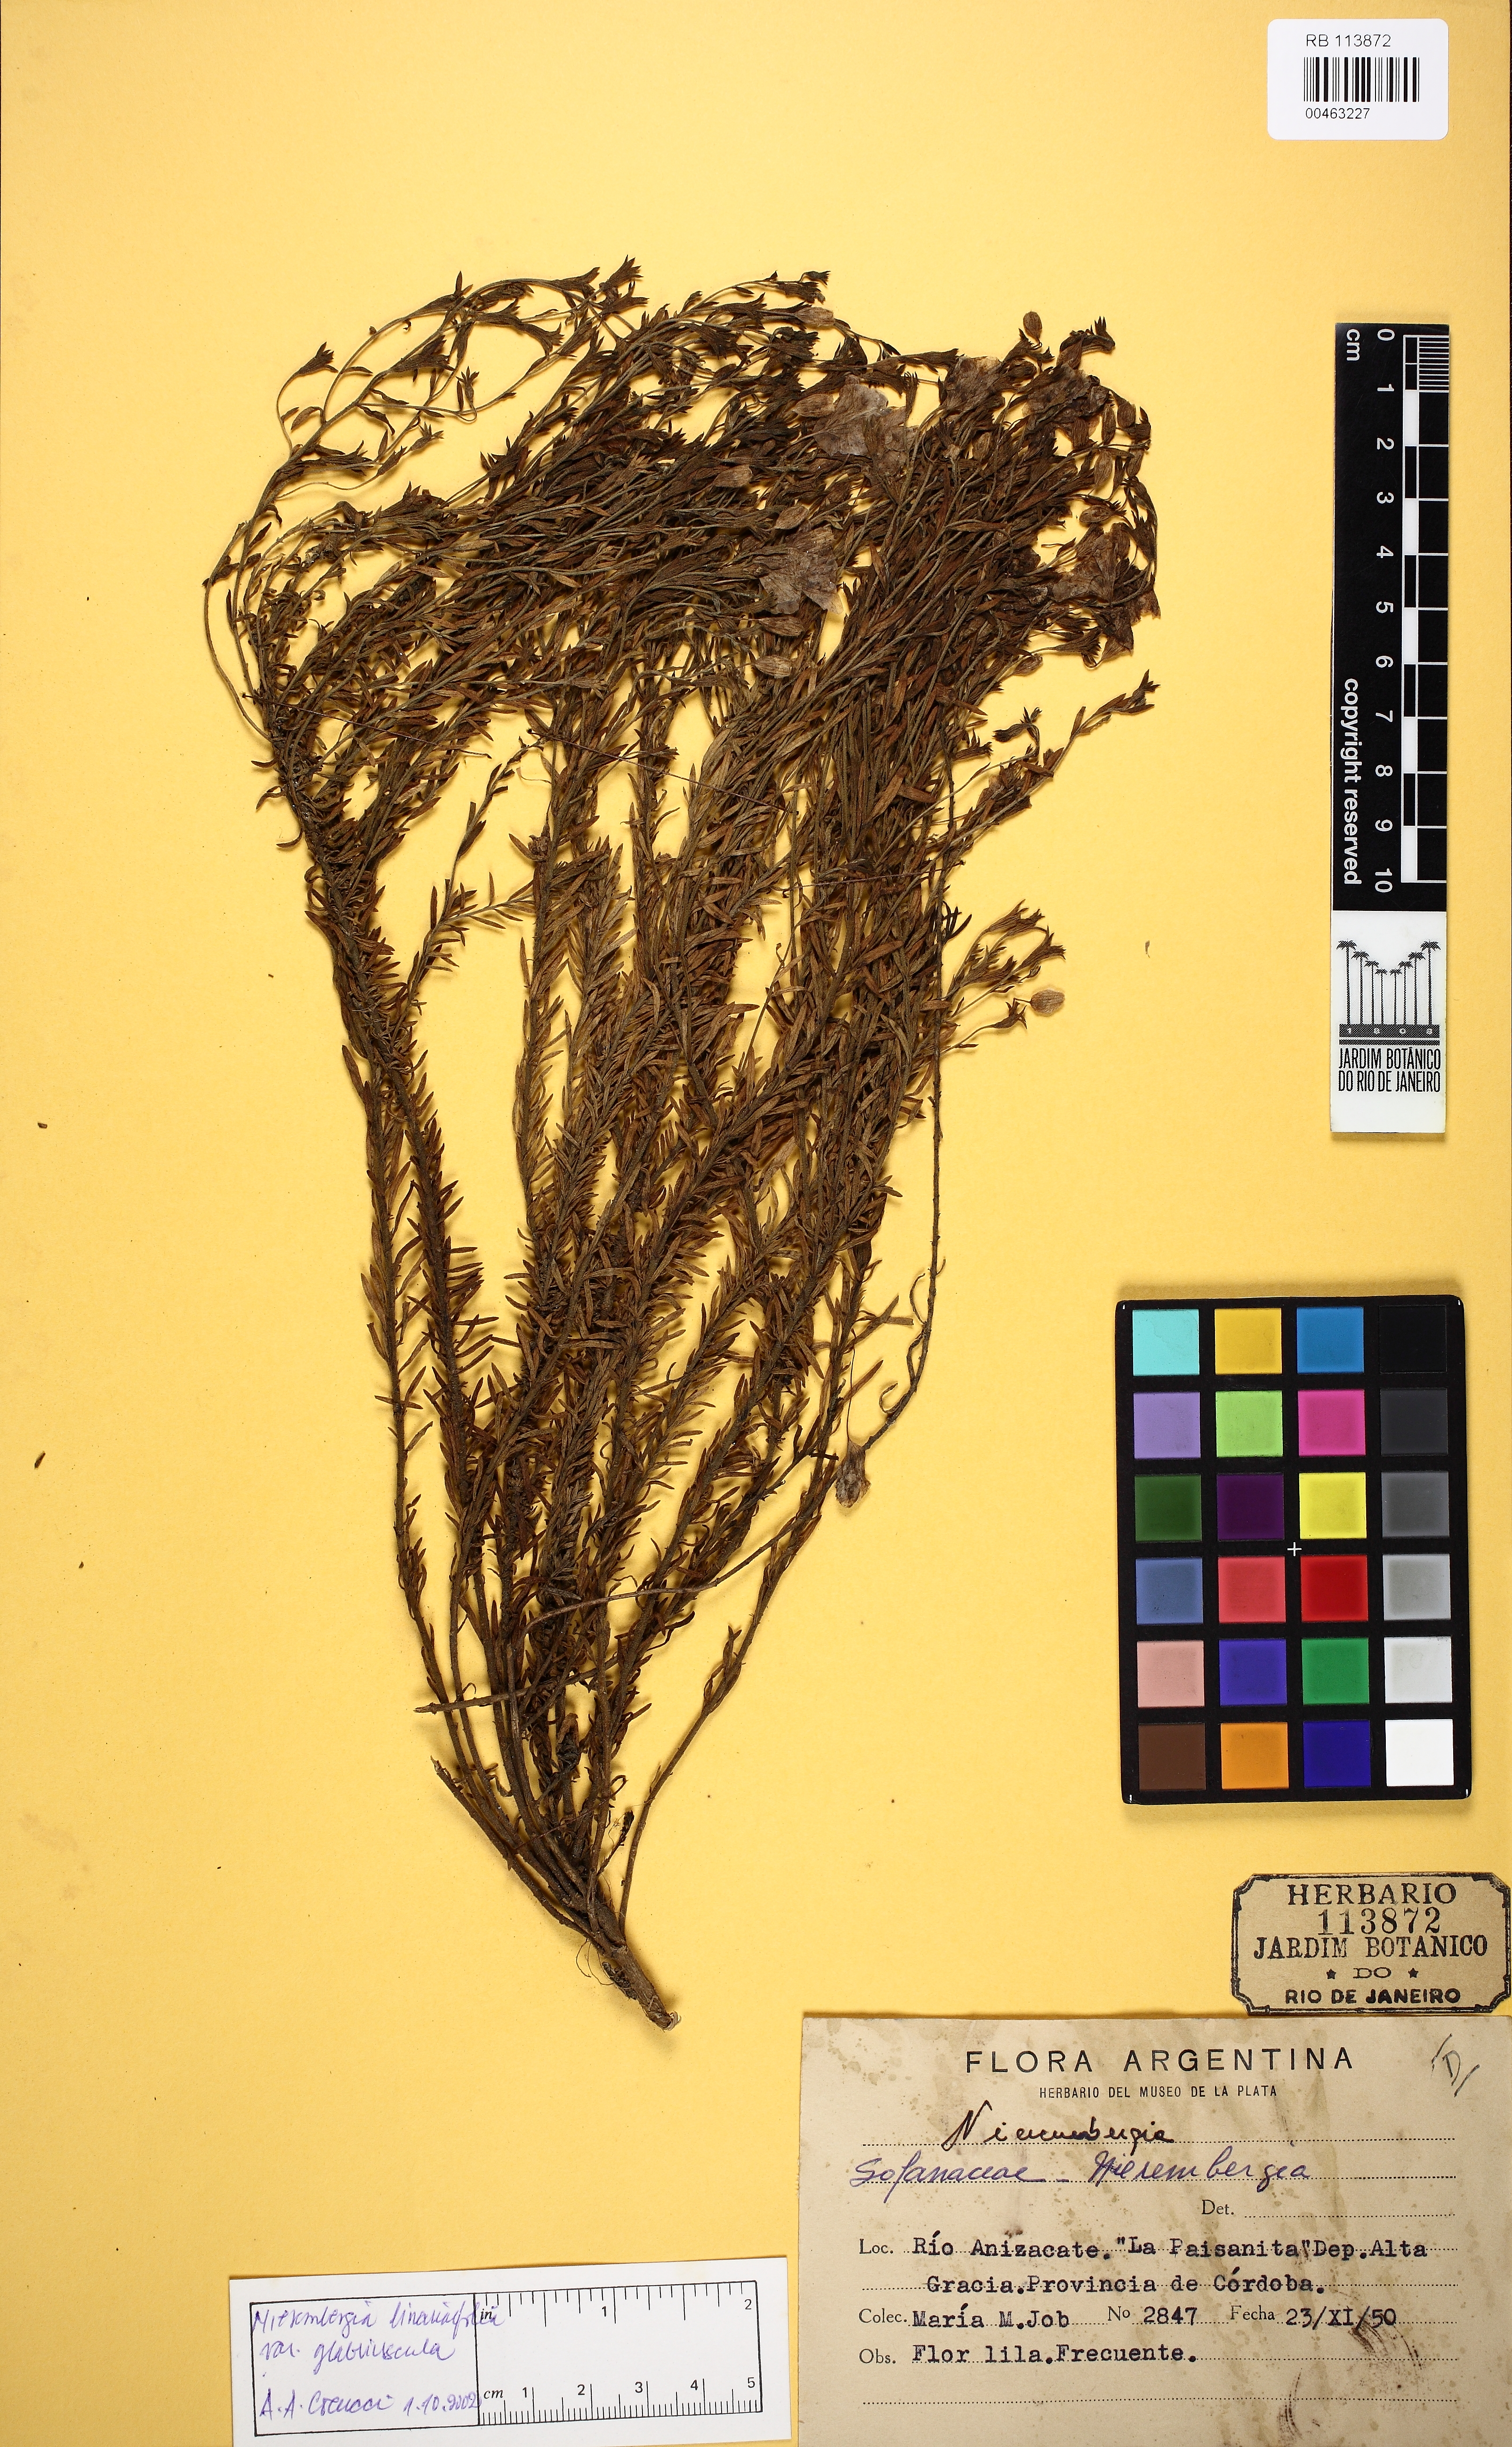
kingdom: Plantae
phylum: Tracheophyta
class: Magnoliopsida
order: Solanales
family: Solanaceae
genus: Nierembergia
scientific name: Nierembergia linariifolia
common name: Dwarf cupflower
